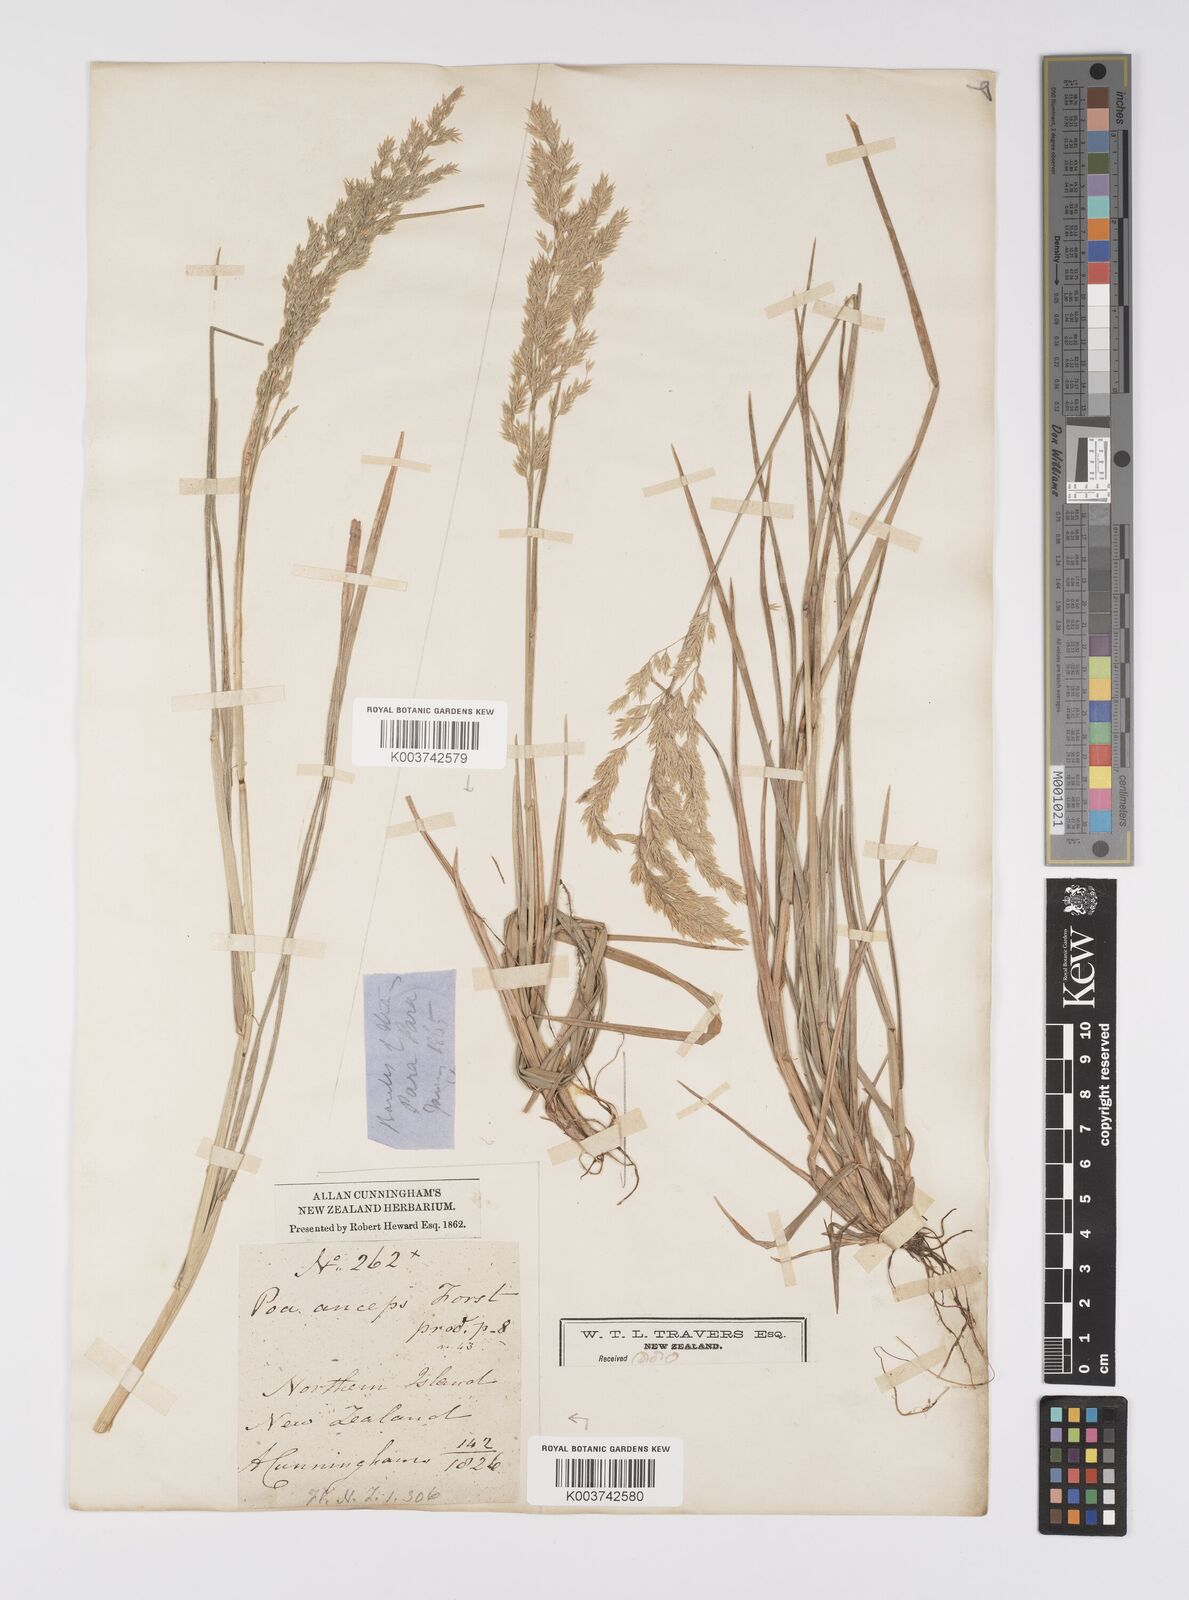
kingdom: Plantae
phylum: Tracheophyta
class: Liliopsida
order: Poales
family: Poaceae
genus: Poa
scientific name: Poa anceps
